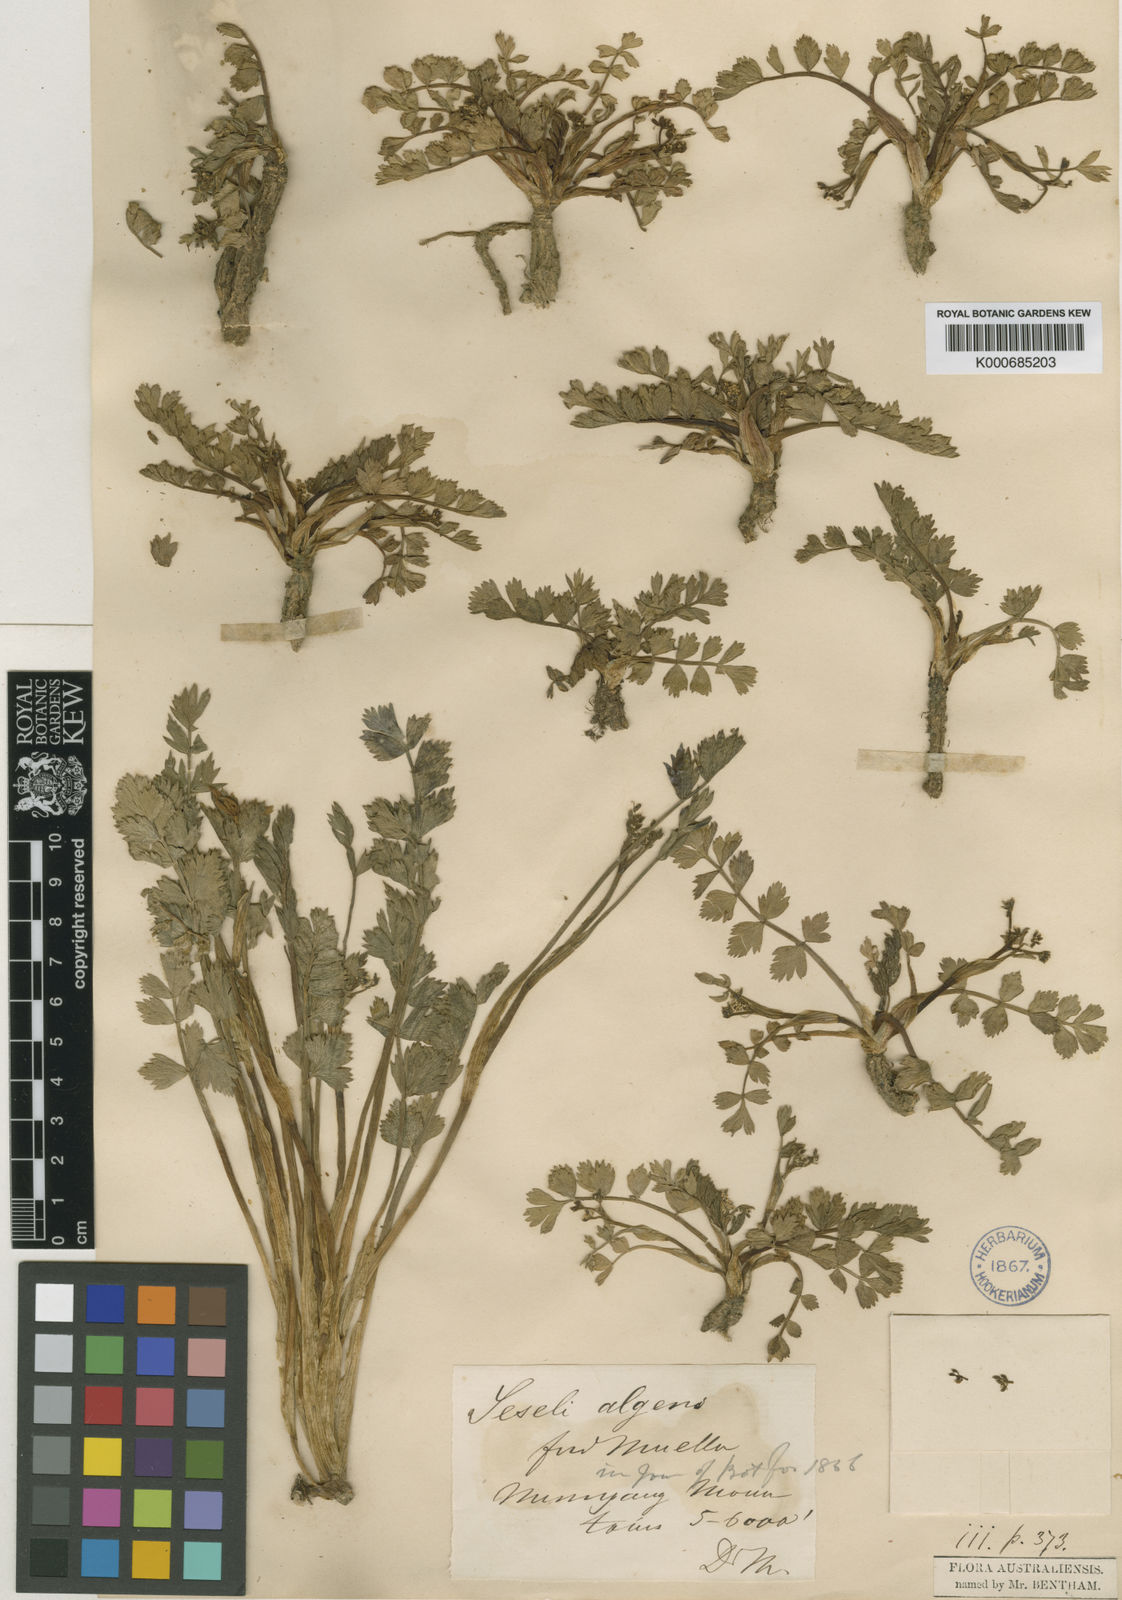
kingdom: Plantae
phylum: Tracheophyta
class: Magnoliopsida
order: Apiales
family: Apiaceae
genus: Gingidia
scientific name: Gingidia algens
